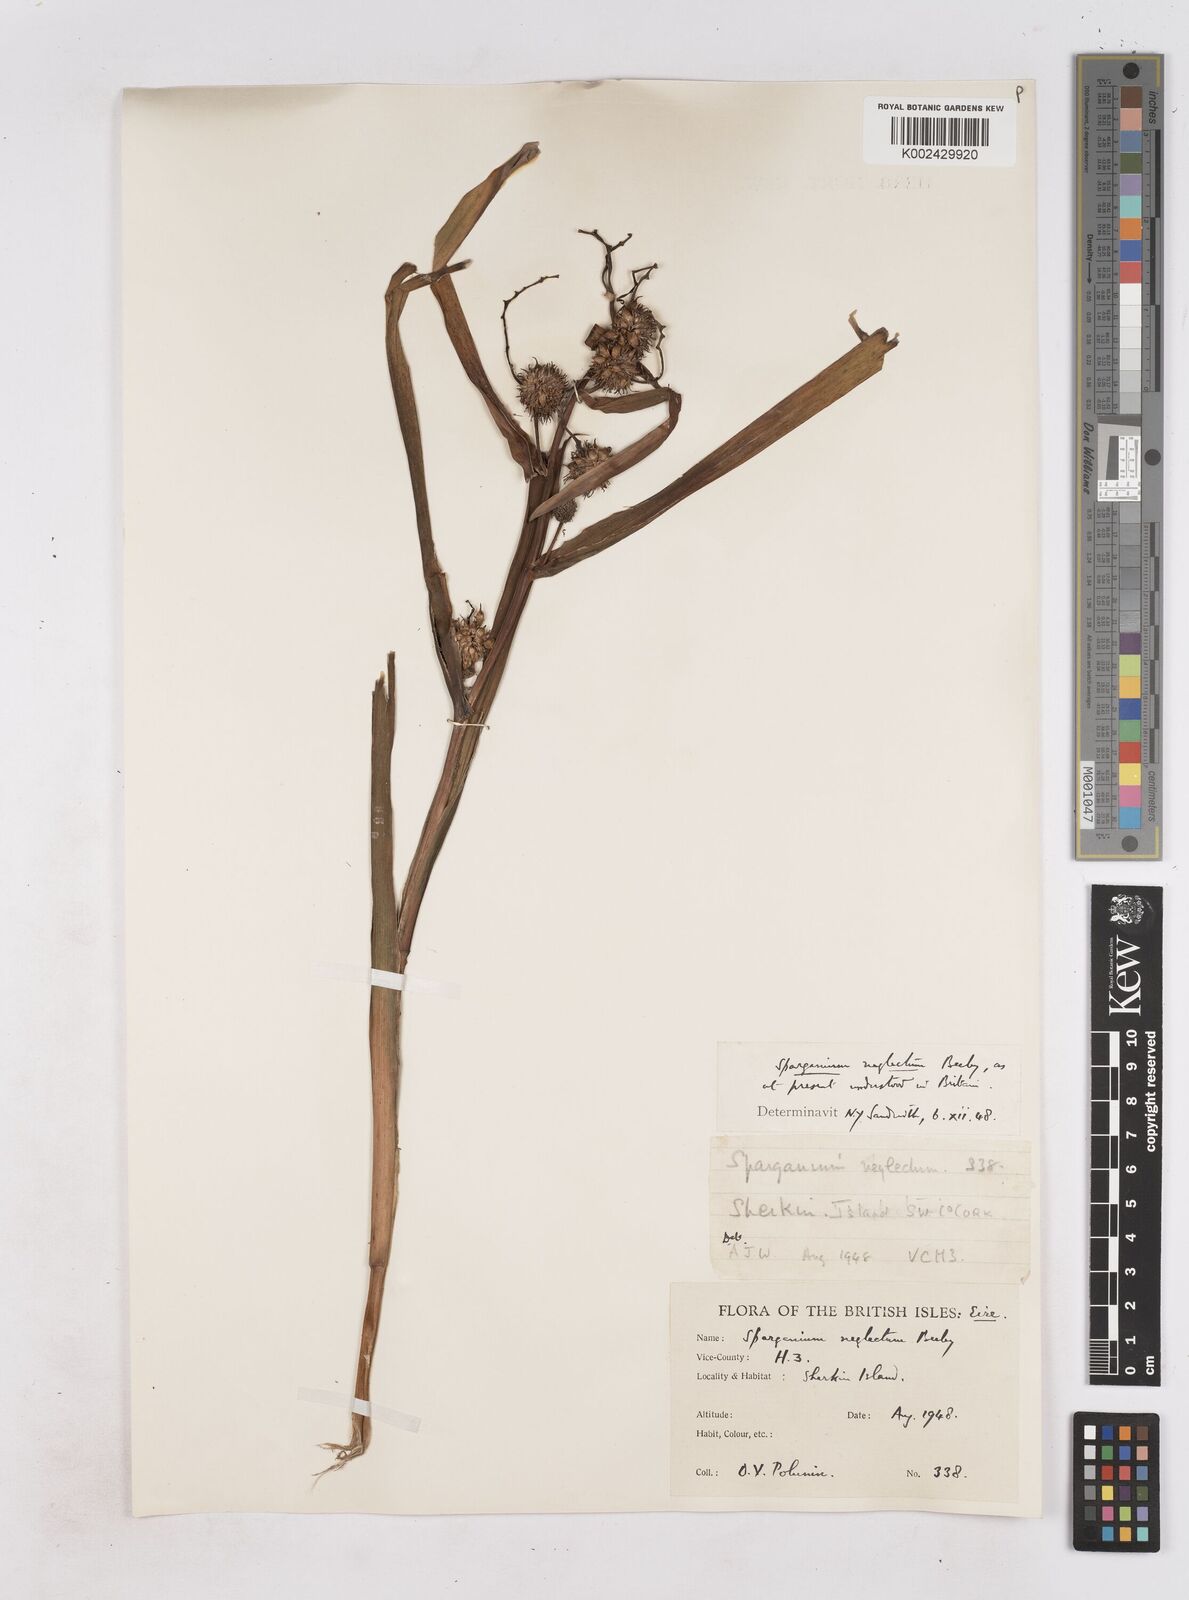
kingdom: Plantae
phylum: Tracheophyta
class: Liliopsida
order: Poales
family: Typhaceae
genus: Sparganium
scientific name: Sparganium erectum
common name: Branched bur-reed
